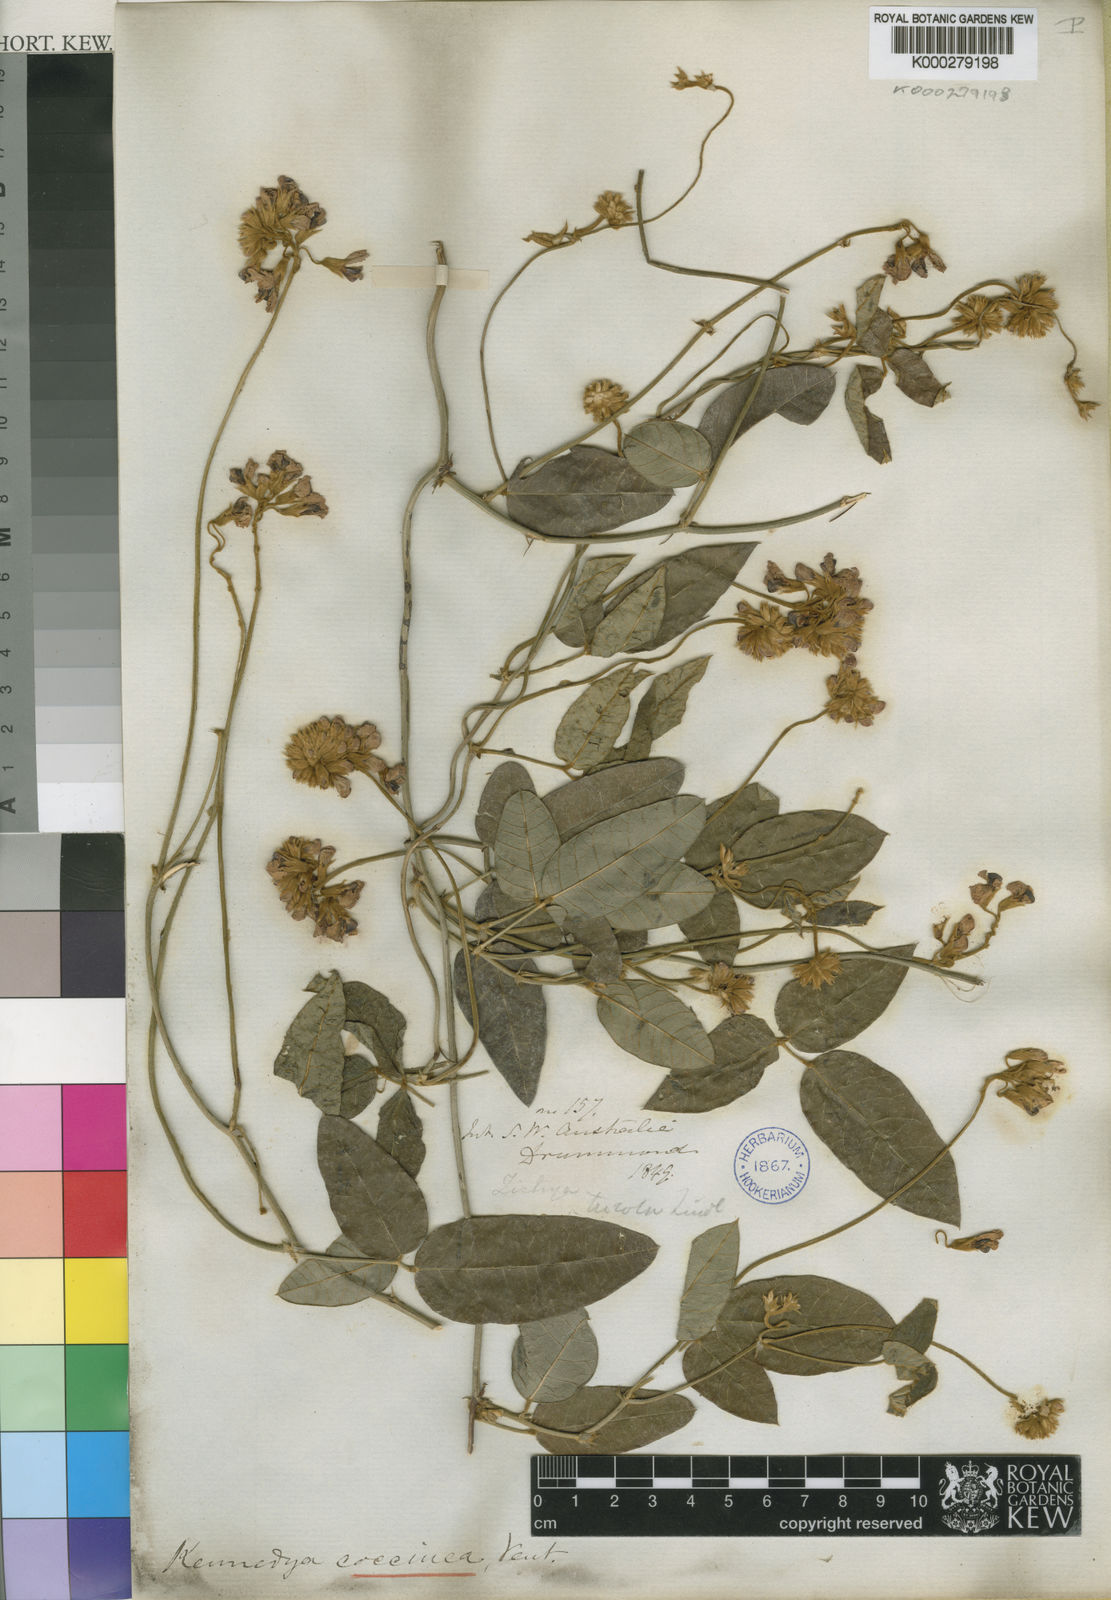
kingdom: Plantae
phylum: Tracheophyta
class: Magnoliopsida
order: Fabales
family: Fabaceae
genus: Kennedia
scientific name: Kennedia coccinea
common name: Coralvine
